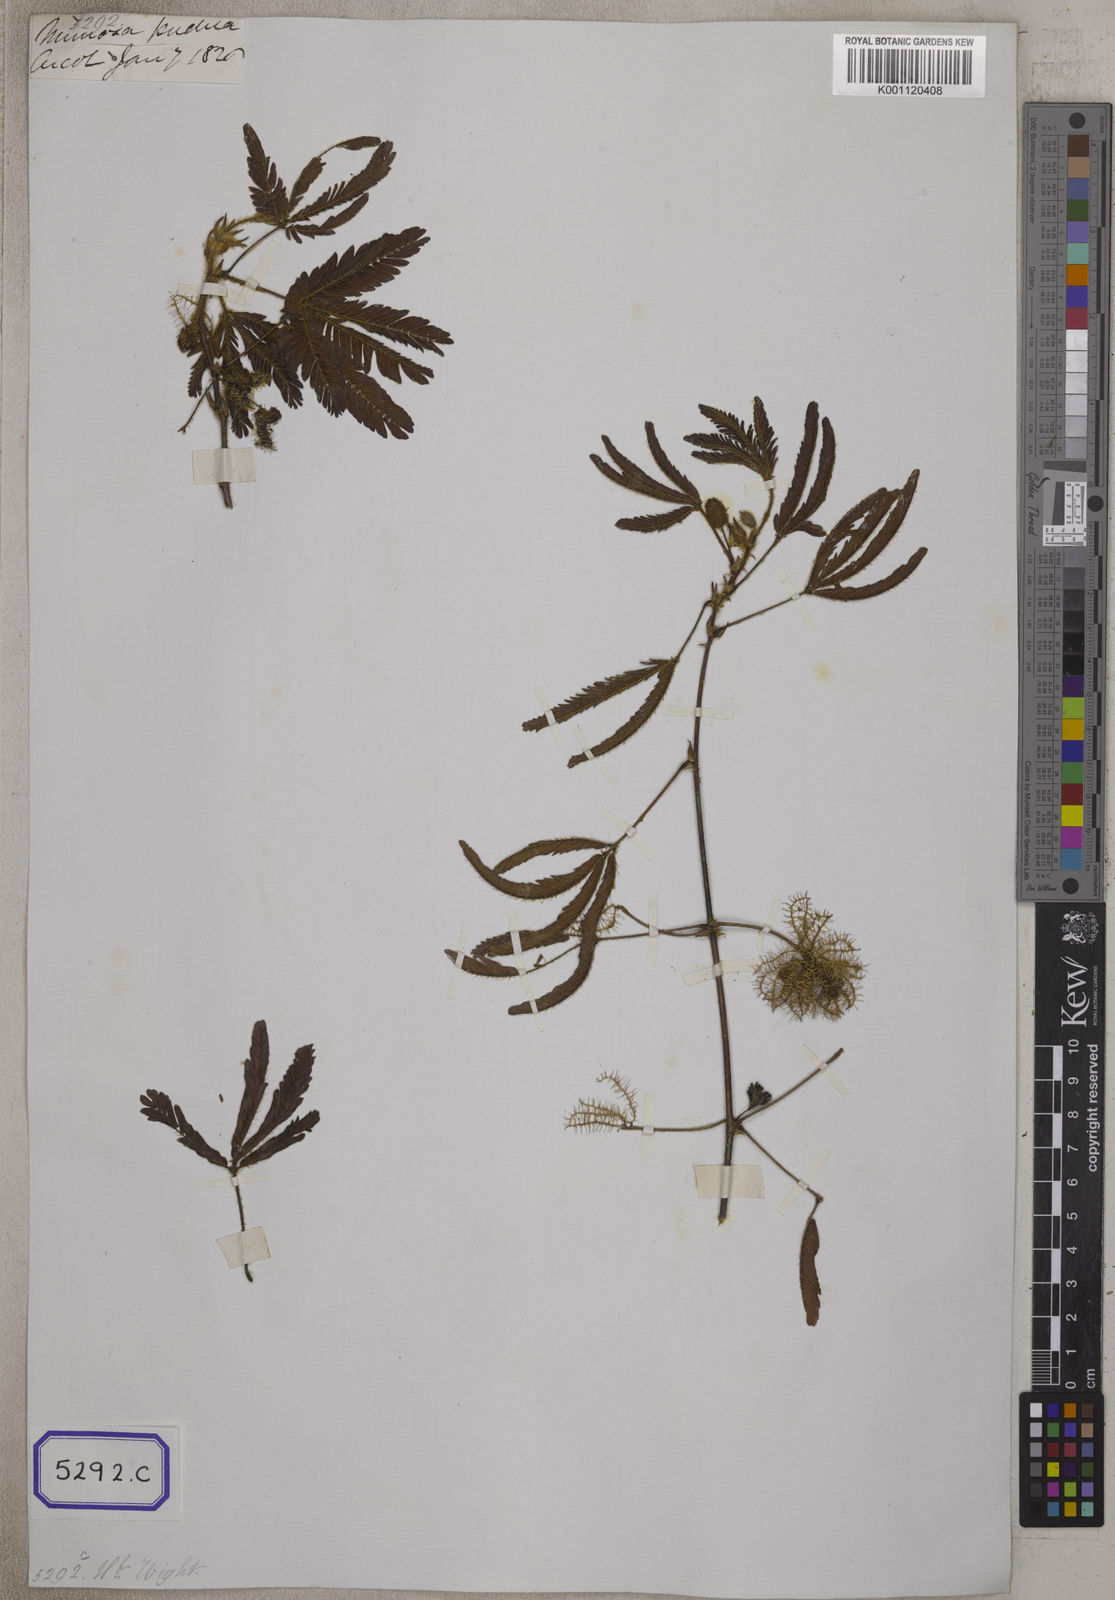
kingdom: Plantae
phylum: Tracheophyta
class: Magnoliopsida
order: Fabales
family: Fabaceae
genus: Mimosa
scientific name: Mimosa pudica
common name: Sensitive plant
